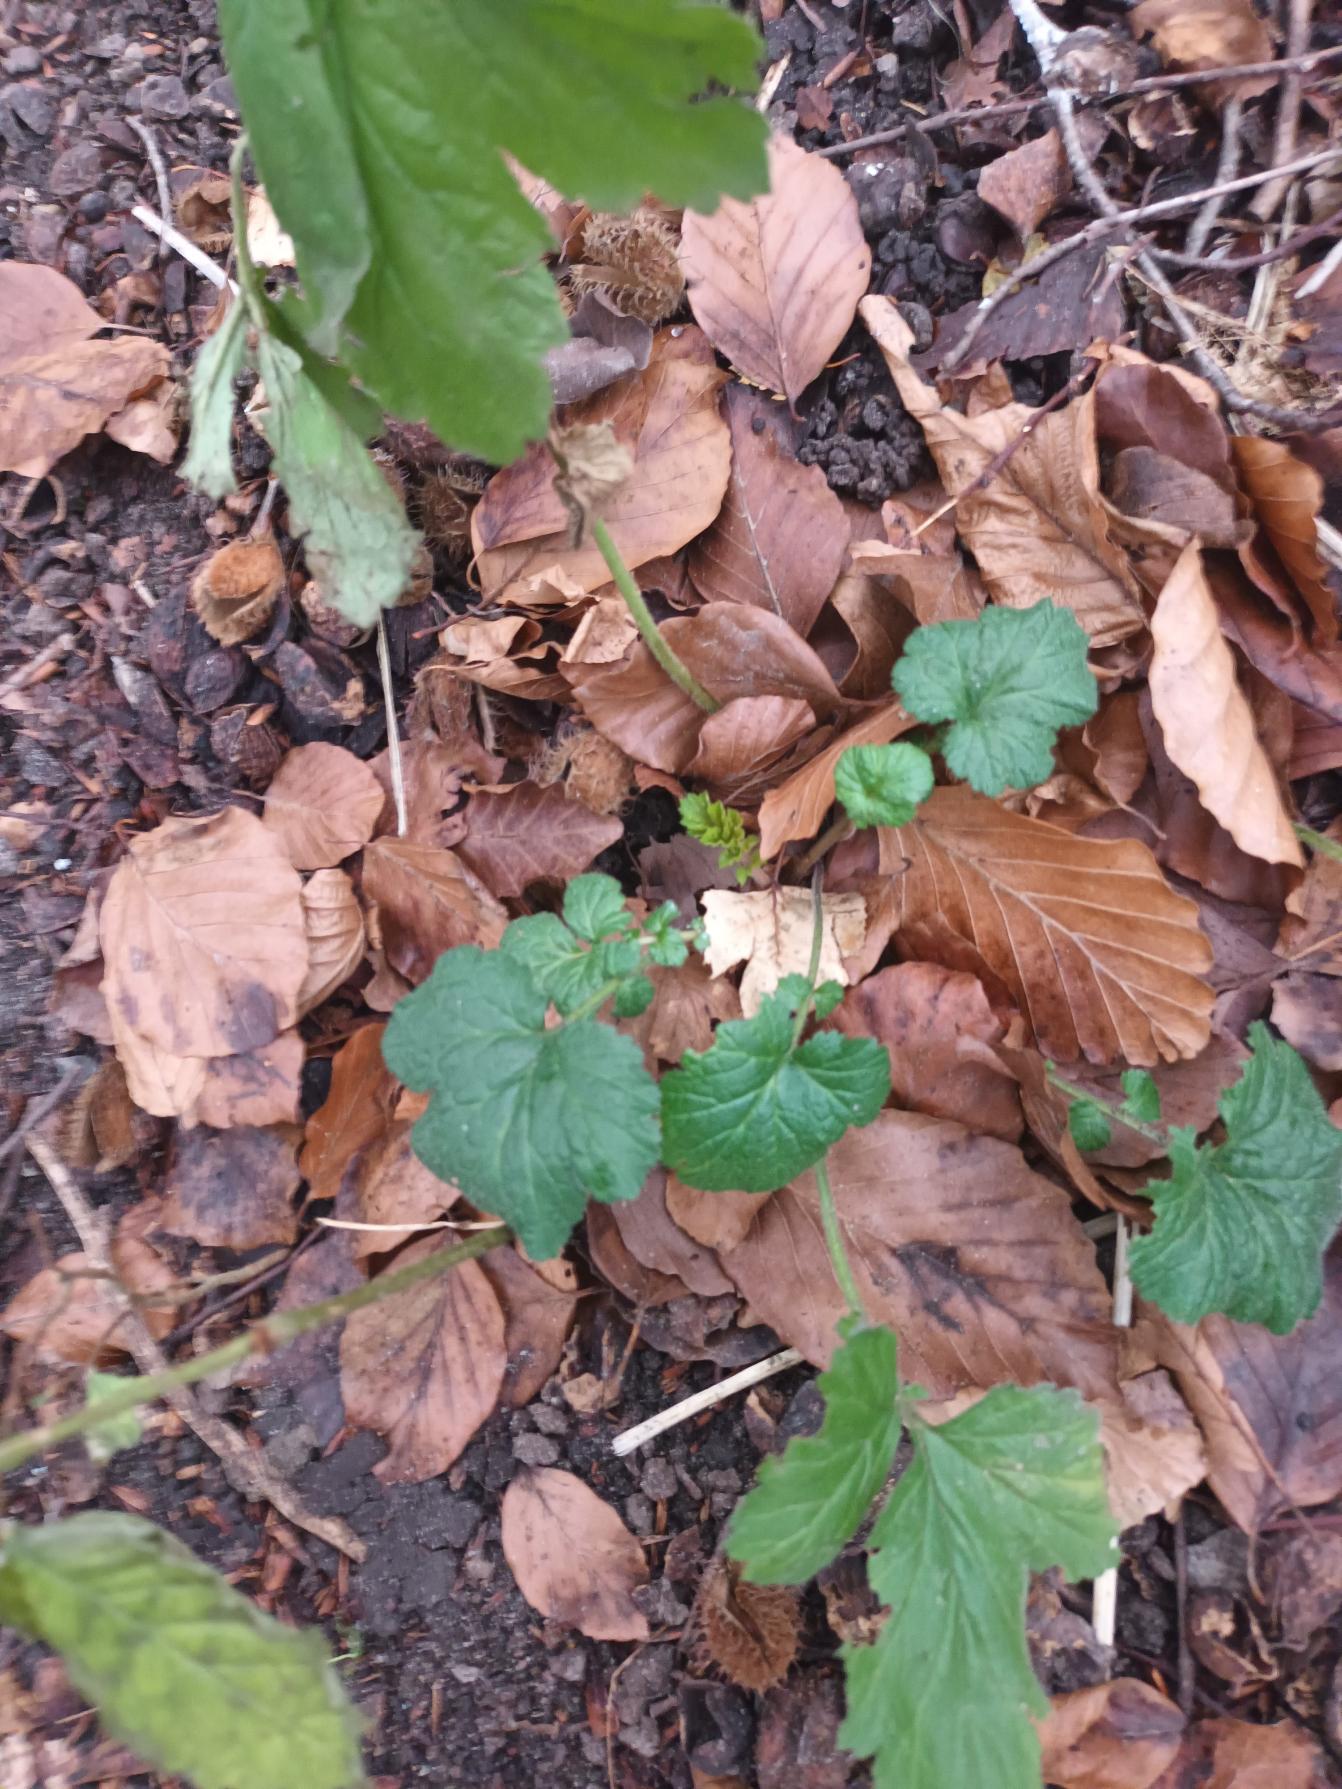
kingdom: Plantae
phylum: Tracheophyta
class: Magnoliopsida
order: Rosales
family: Rosaceae
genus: Geum
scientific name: Geum urbanum
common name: Feber-nellikerod
